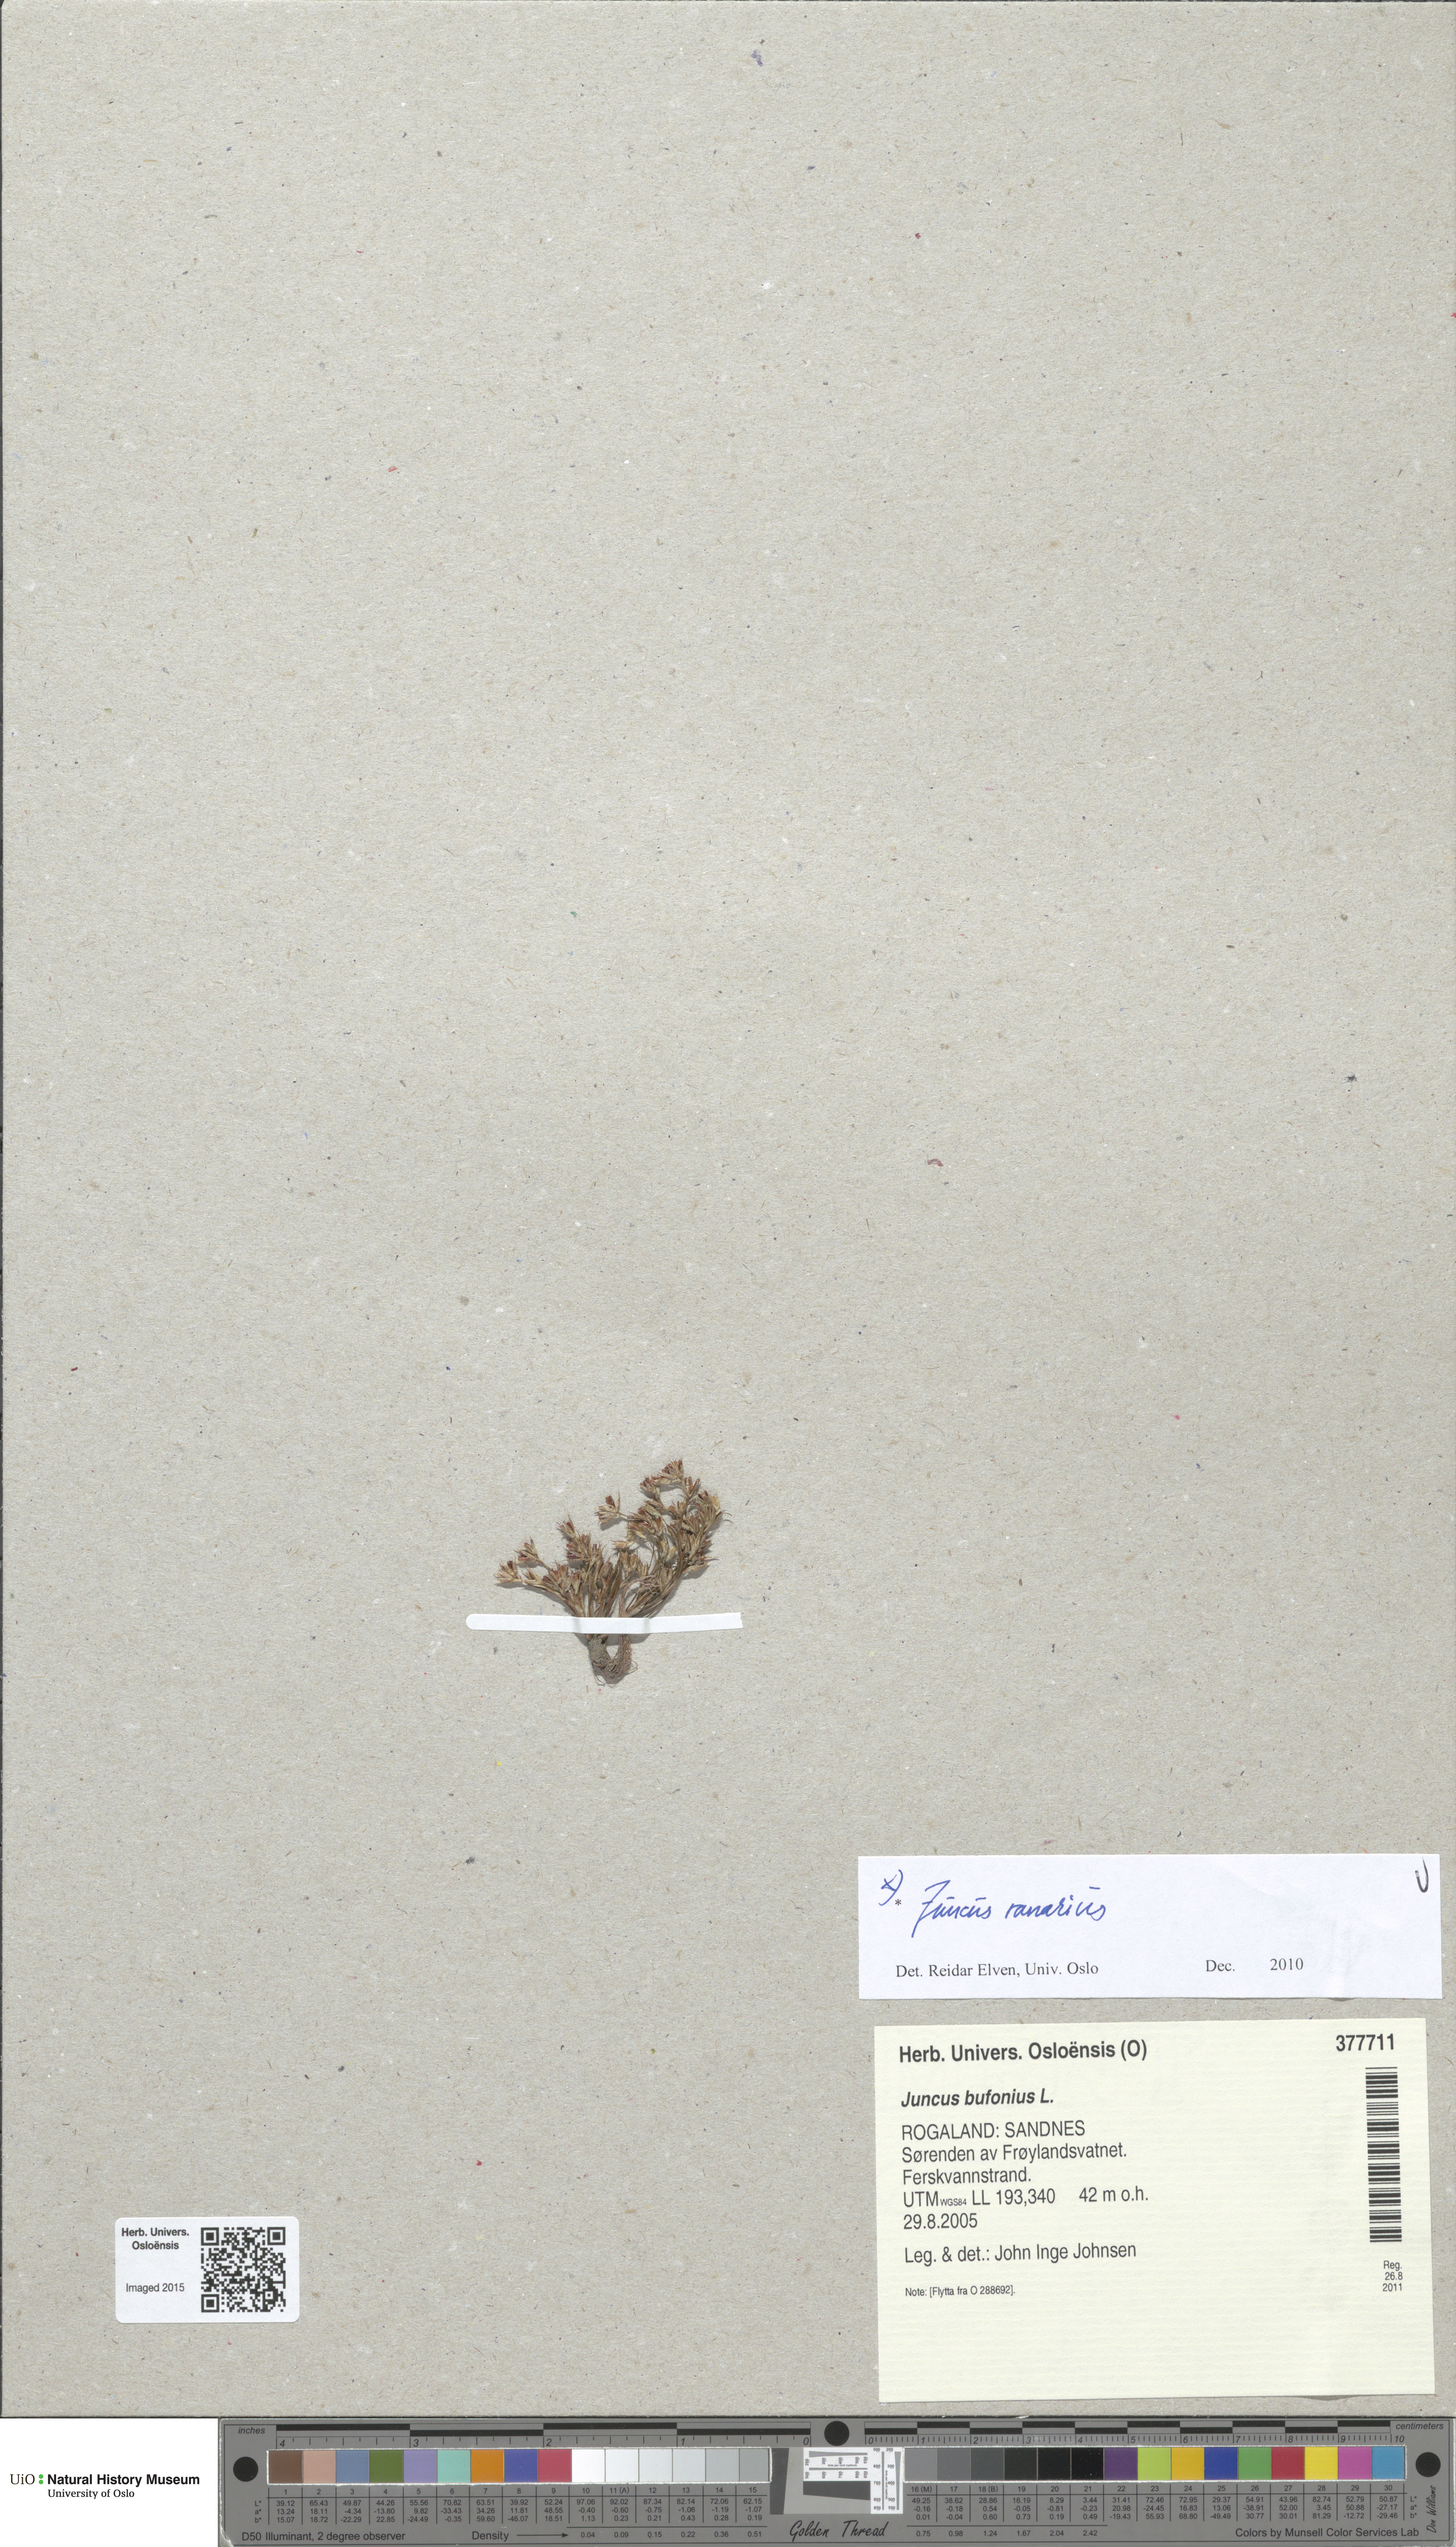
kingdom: Plantae
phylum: Tracheophyta
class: Liliopsida
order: Poales
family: Juncaceae
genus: Juncus
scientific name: Juncus ranarius
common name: Frog rush
